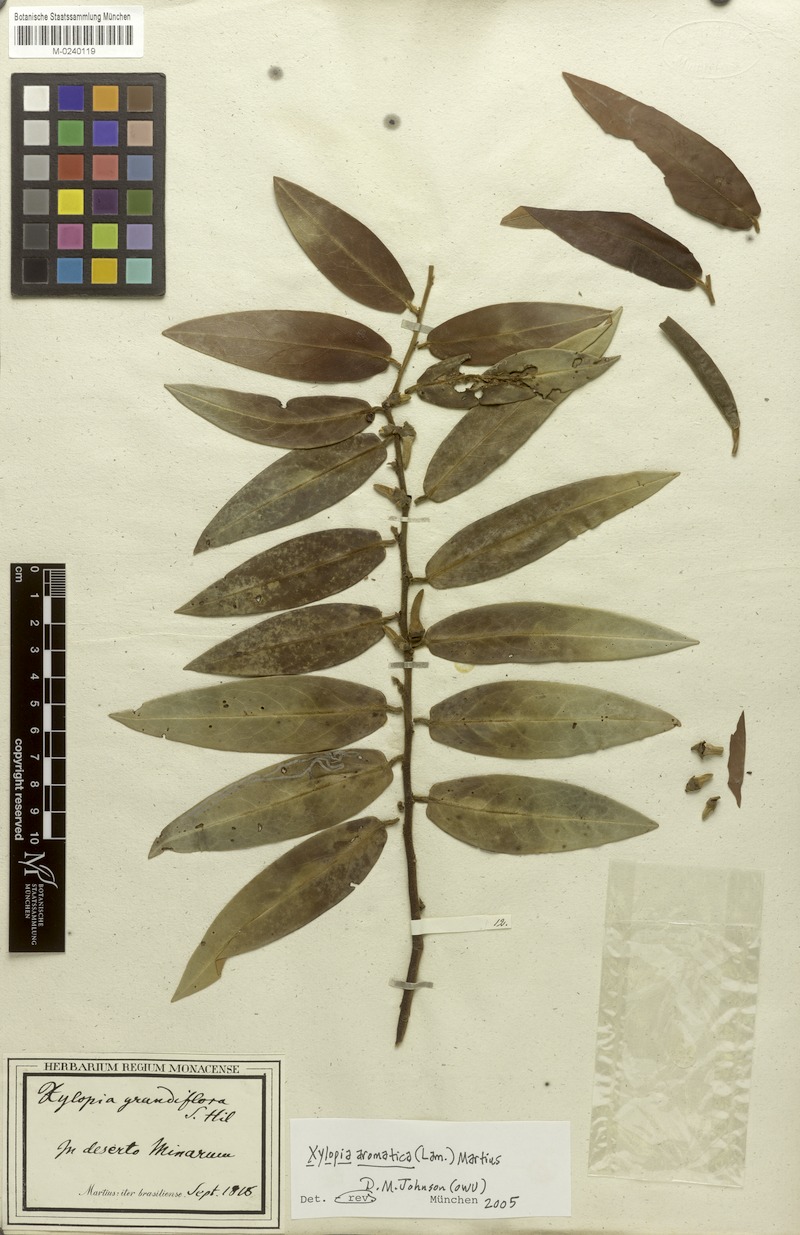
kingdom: Plantae
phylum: Tracheophyta
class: Magnoliopsida
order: Magnoliales
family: Annonaceae
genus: Xylopia
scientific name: Xylopia aromatica
